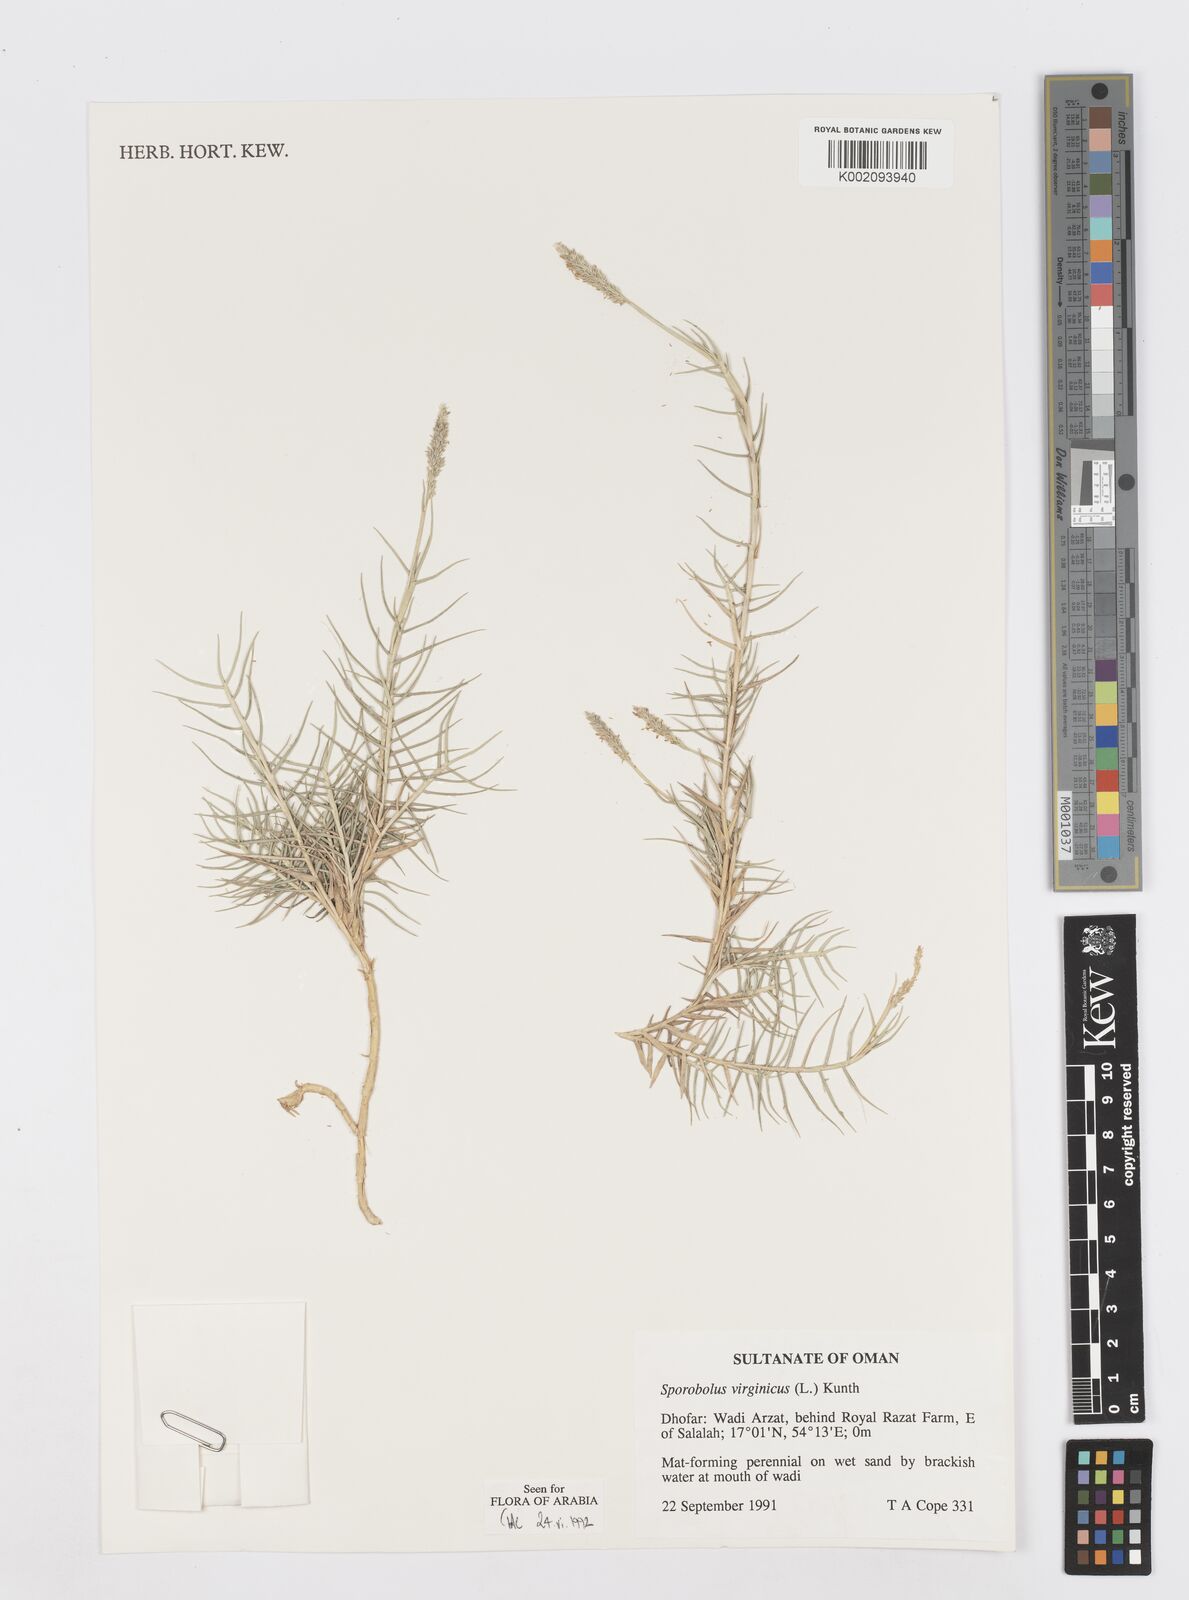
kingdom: Plantae
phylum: Tracheophyta
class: Liliopsida
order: Poales
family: Poaceae
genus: Sporobolus
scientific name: Sporobolus virginicus
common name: Beach dropseed
